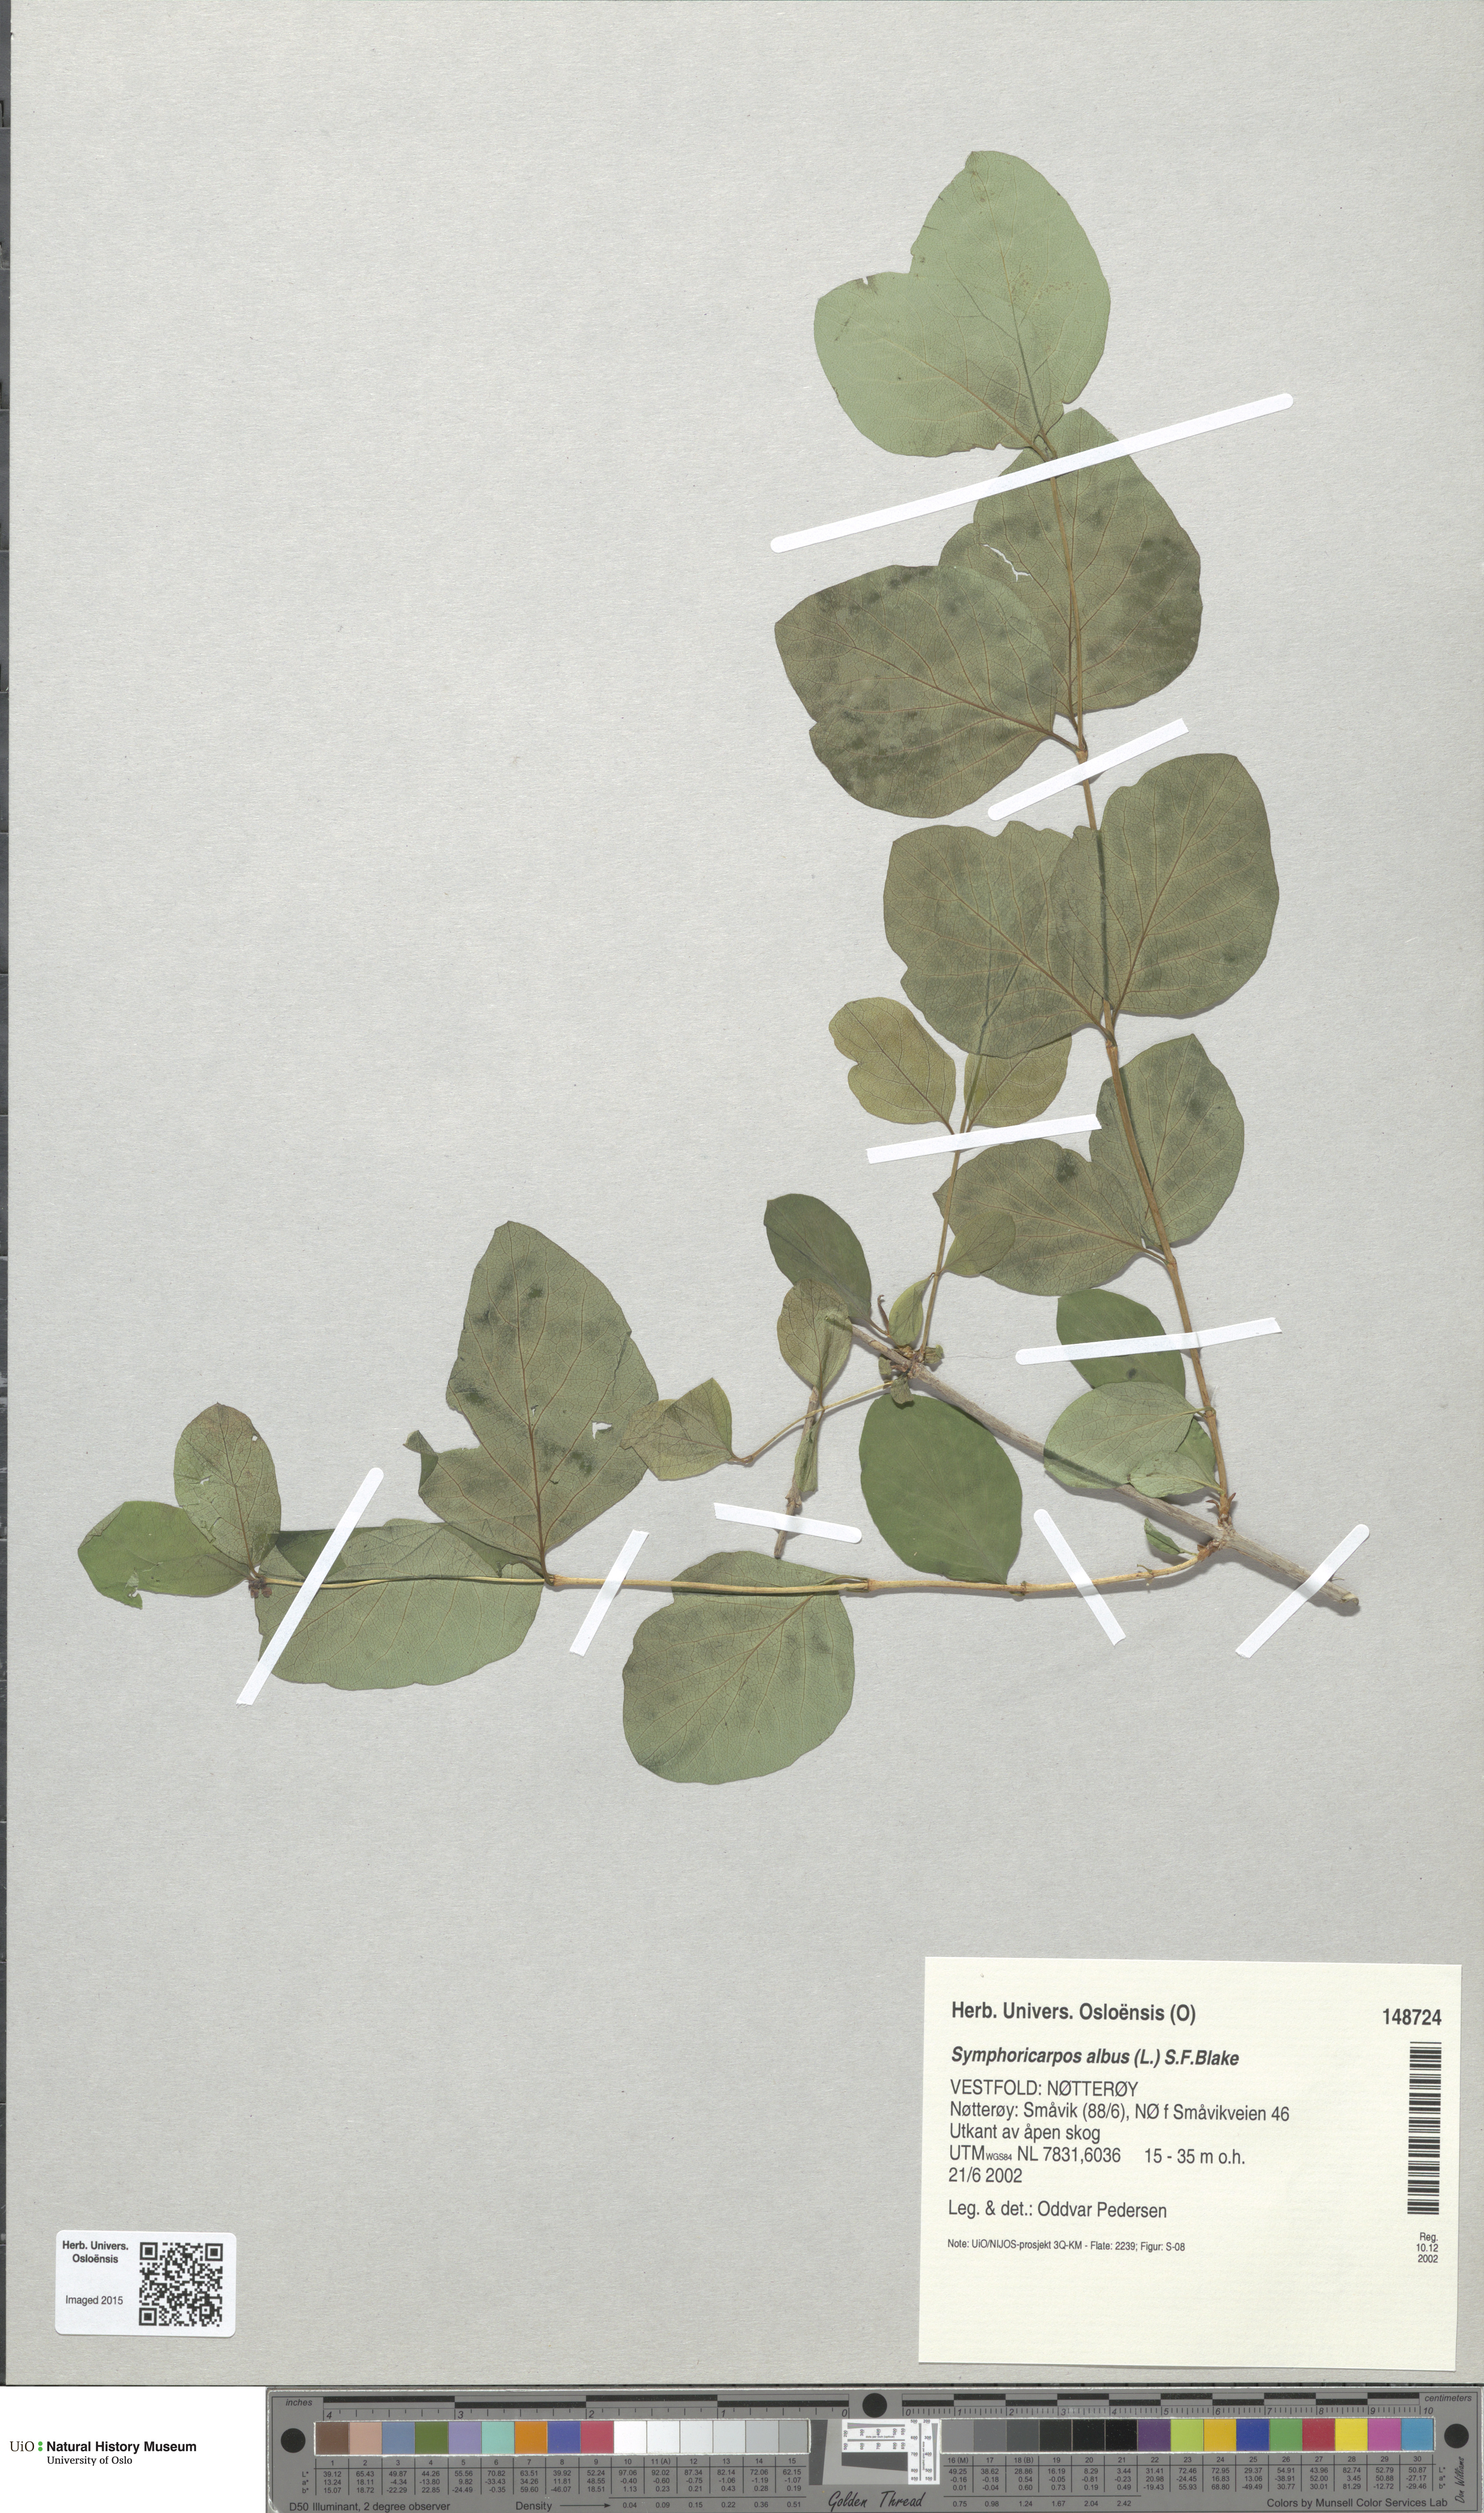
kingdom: Plantae
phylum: Tracheophyta
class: Magnoliopsida
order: Dipsacales
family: Caprifoliaceae
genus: Symphoricarpos
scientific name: Symphoricarpos albus
